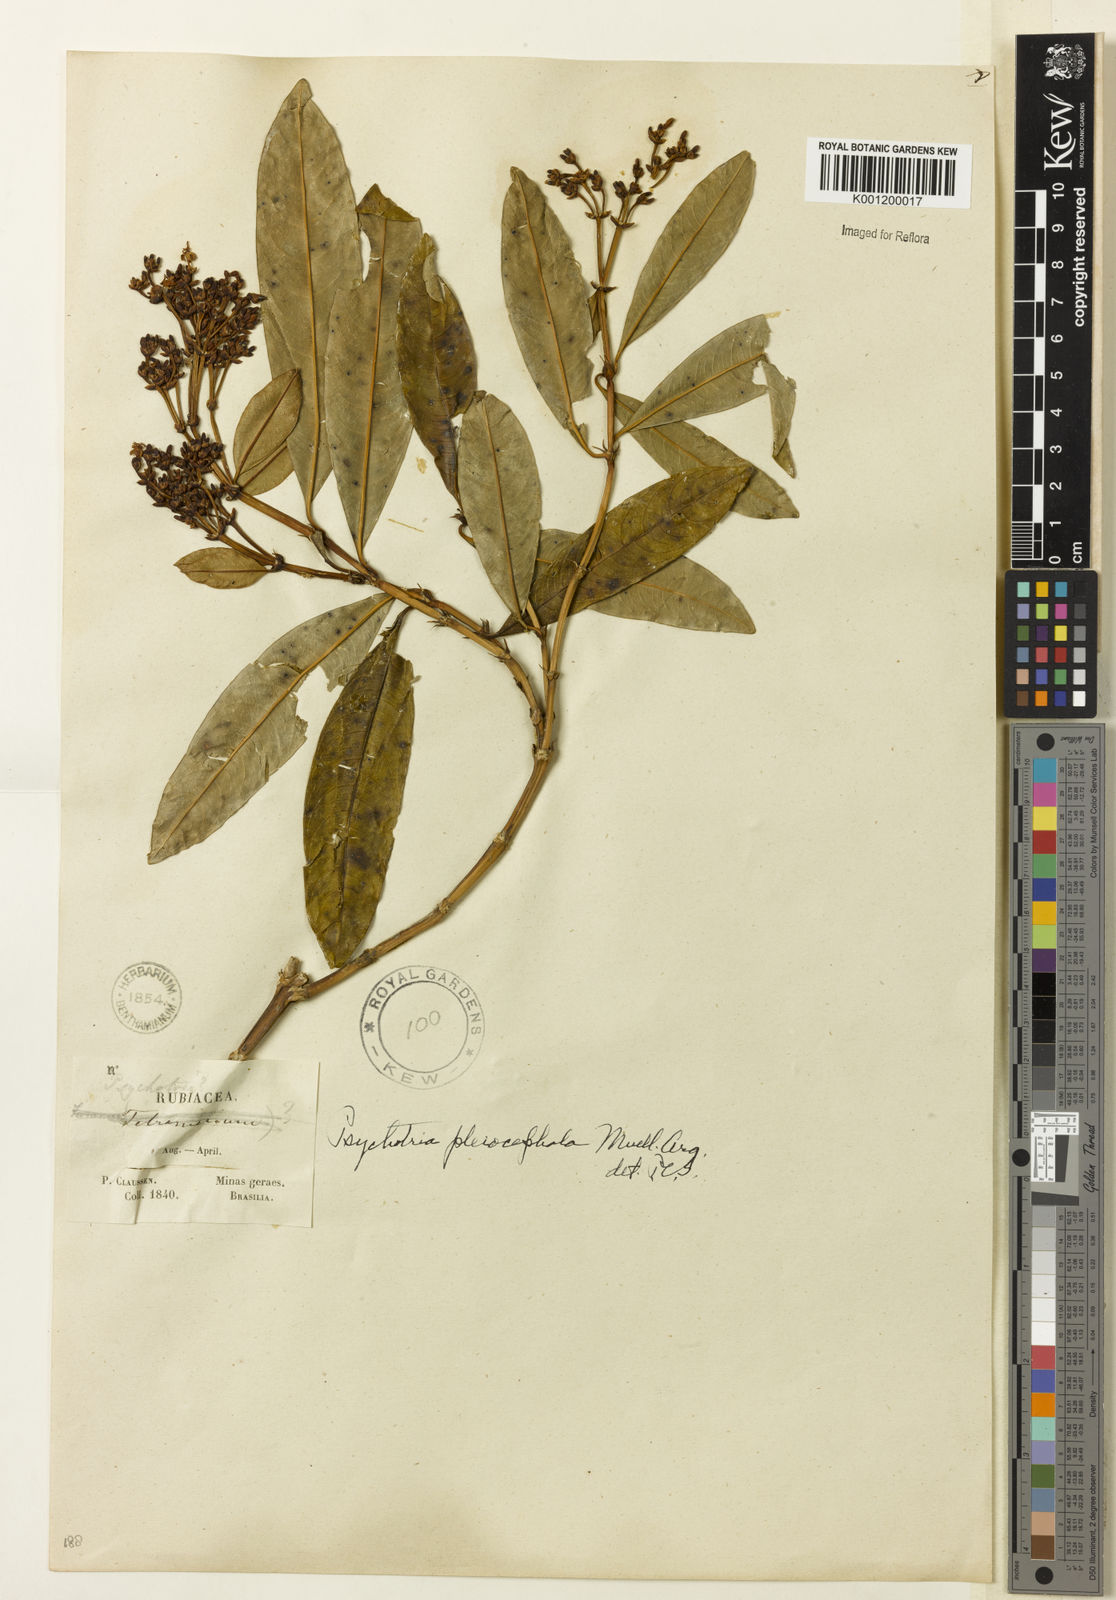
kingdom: Plantae
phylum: Tracheophyta
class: Magnoliopsida
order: Gentianales
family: Rubiaceae
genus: Psychotria
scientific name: Psychotria
